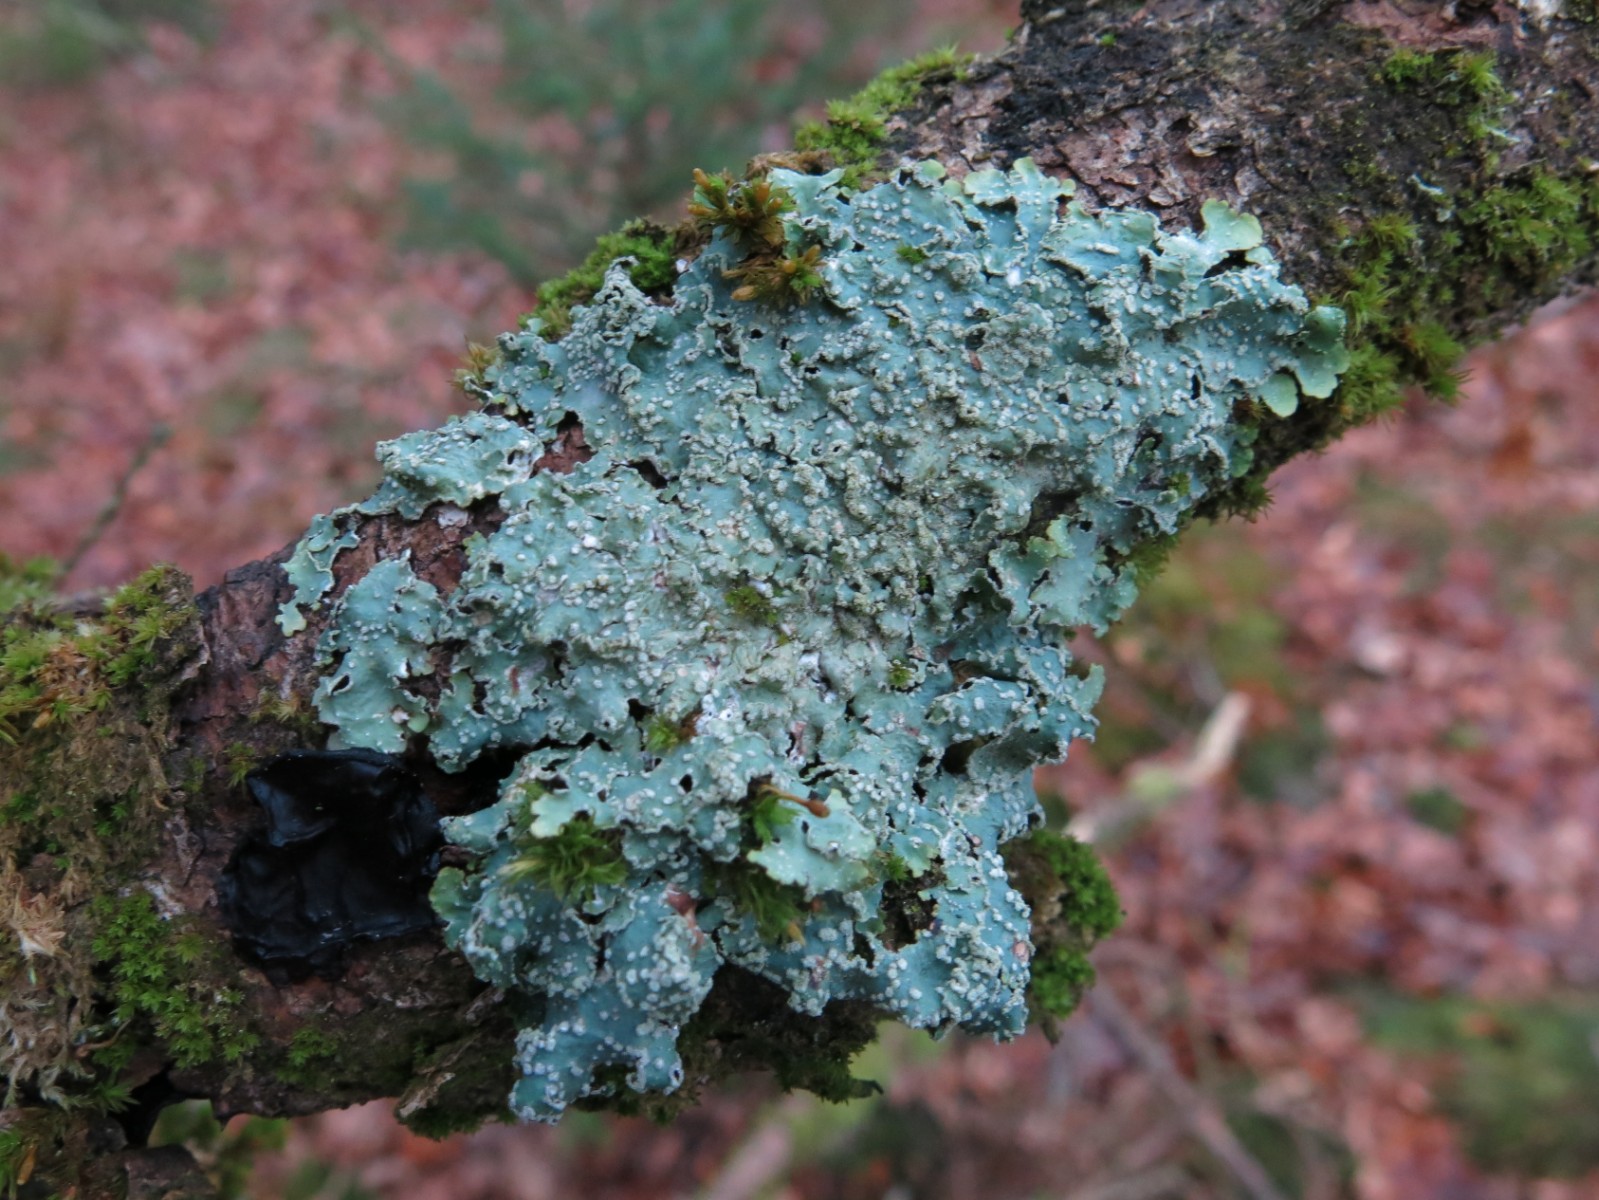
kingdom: Fungi
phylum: Ascomycota
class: Lecanoromycetes
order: Lecanorales
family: Parmeliaceae
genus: Punctelia
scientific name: Punctelia subrudecta
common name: punkt-skållav
